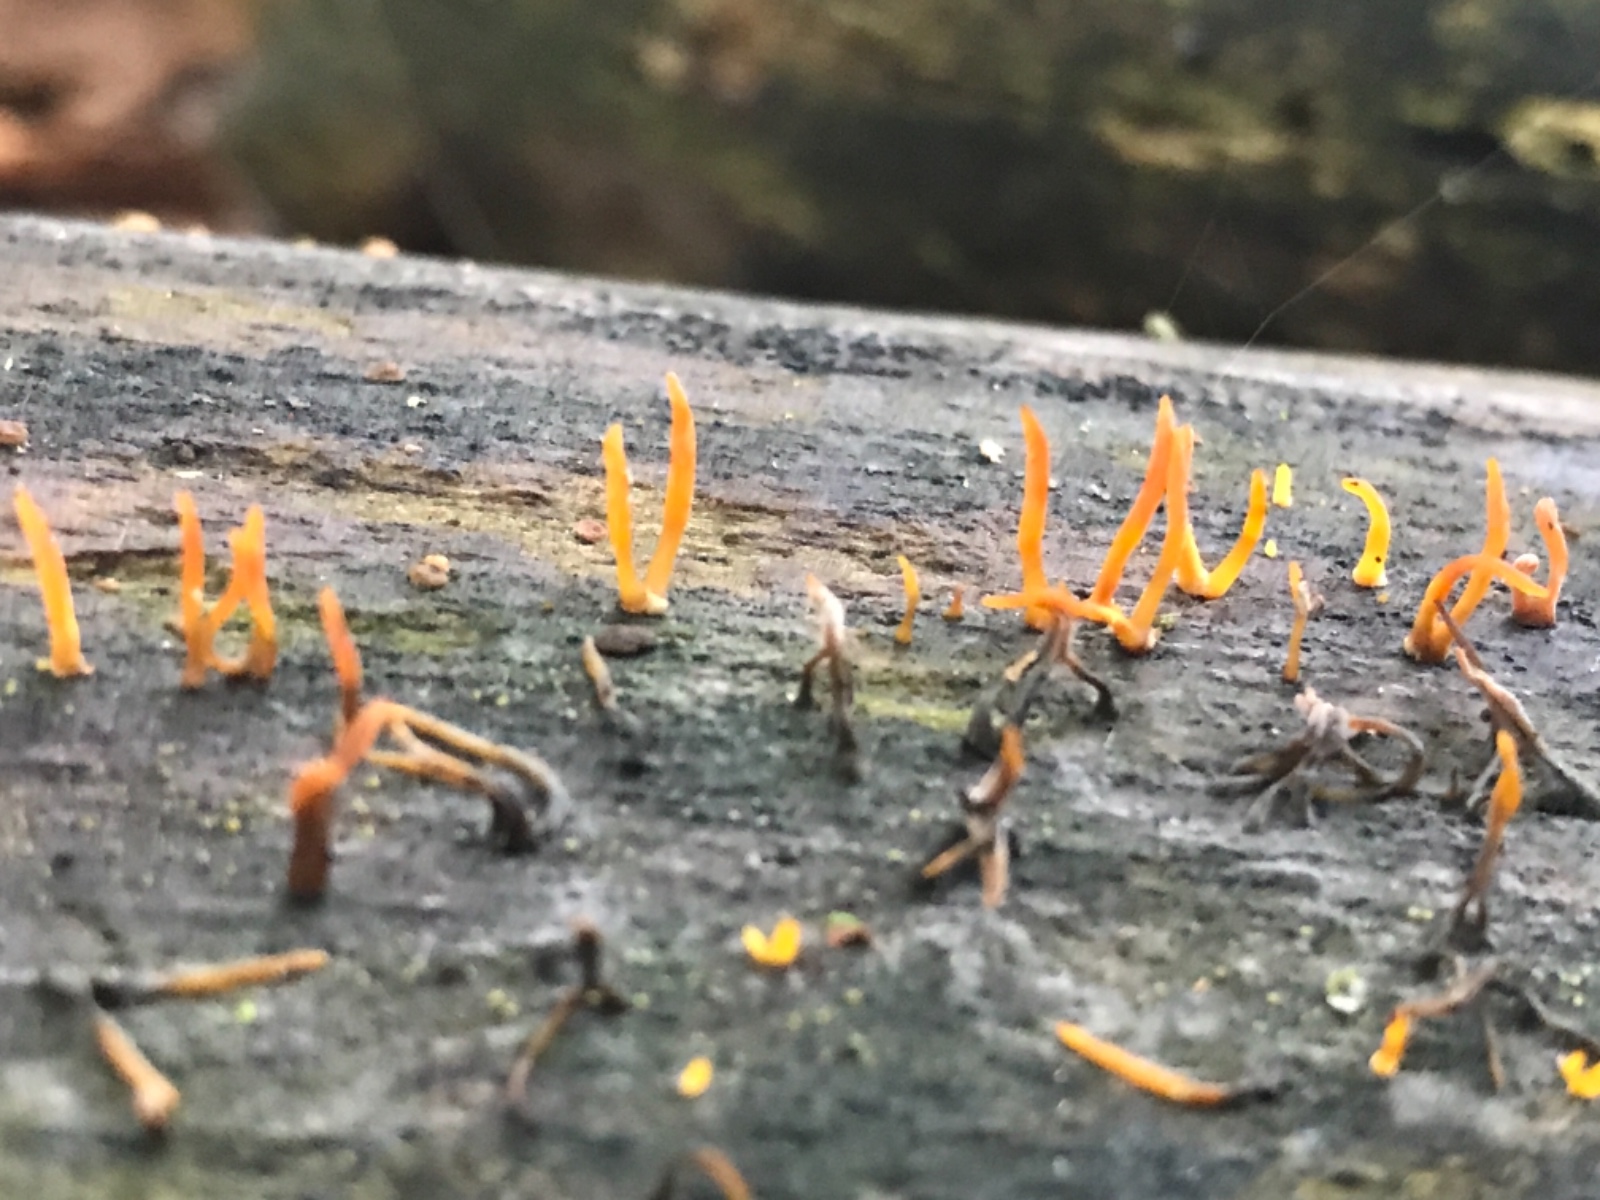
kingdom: Fungi
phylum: Basidiomycota
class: Dacrymycetes
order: Dacrymycetales
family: Dacrymycetaceae
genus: Calocera
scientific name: Calocera cornea
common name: liden guldgaffel
